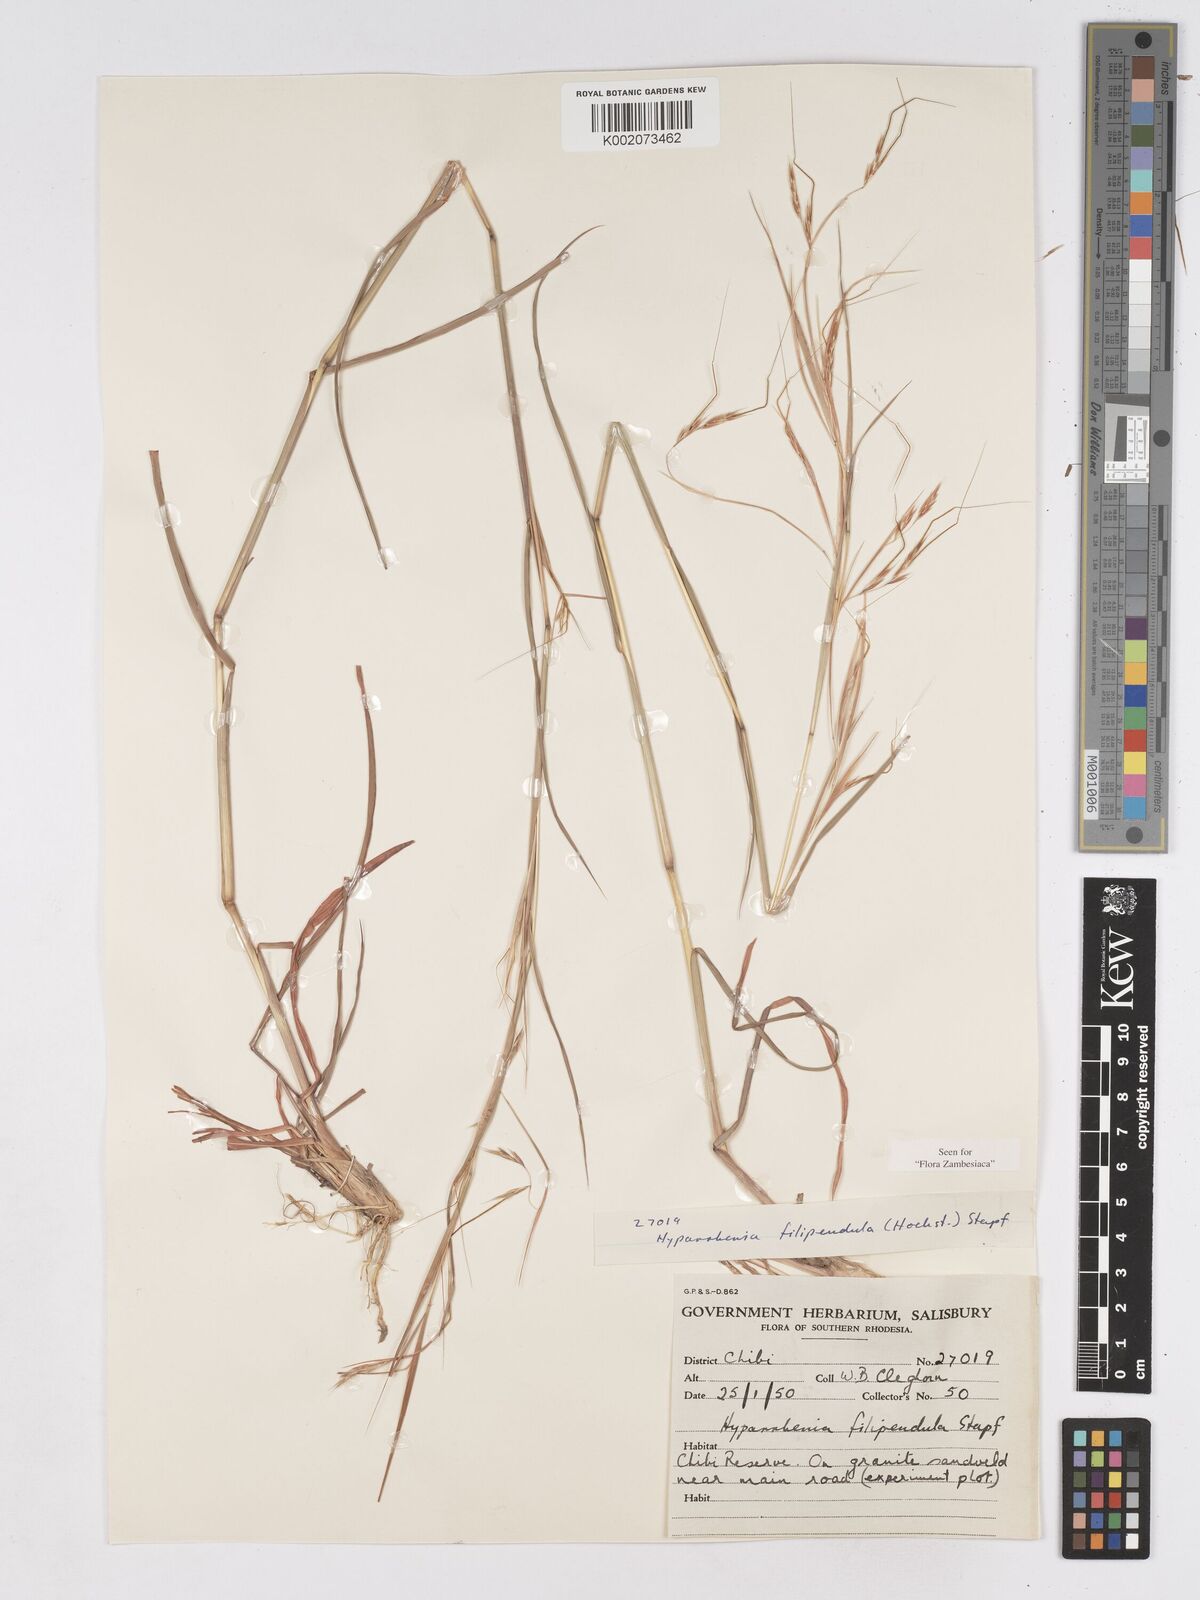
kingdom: Plantae
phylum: Tracheophyta
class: Liliopsida
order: Poales
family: Poaceae
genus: Hyparrhenia
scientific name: Hyparrhenia filipendula
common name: Tambookie grass
